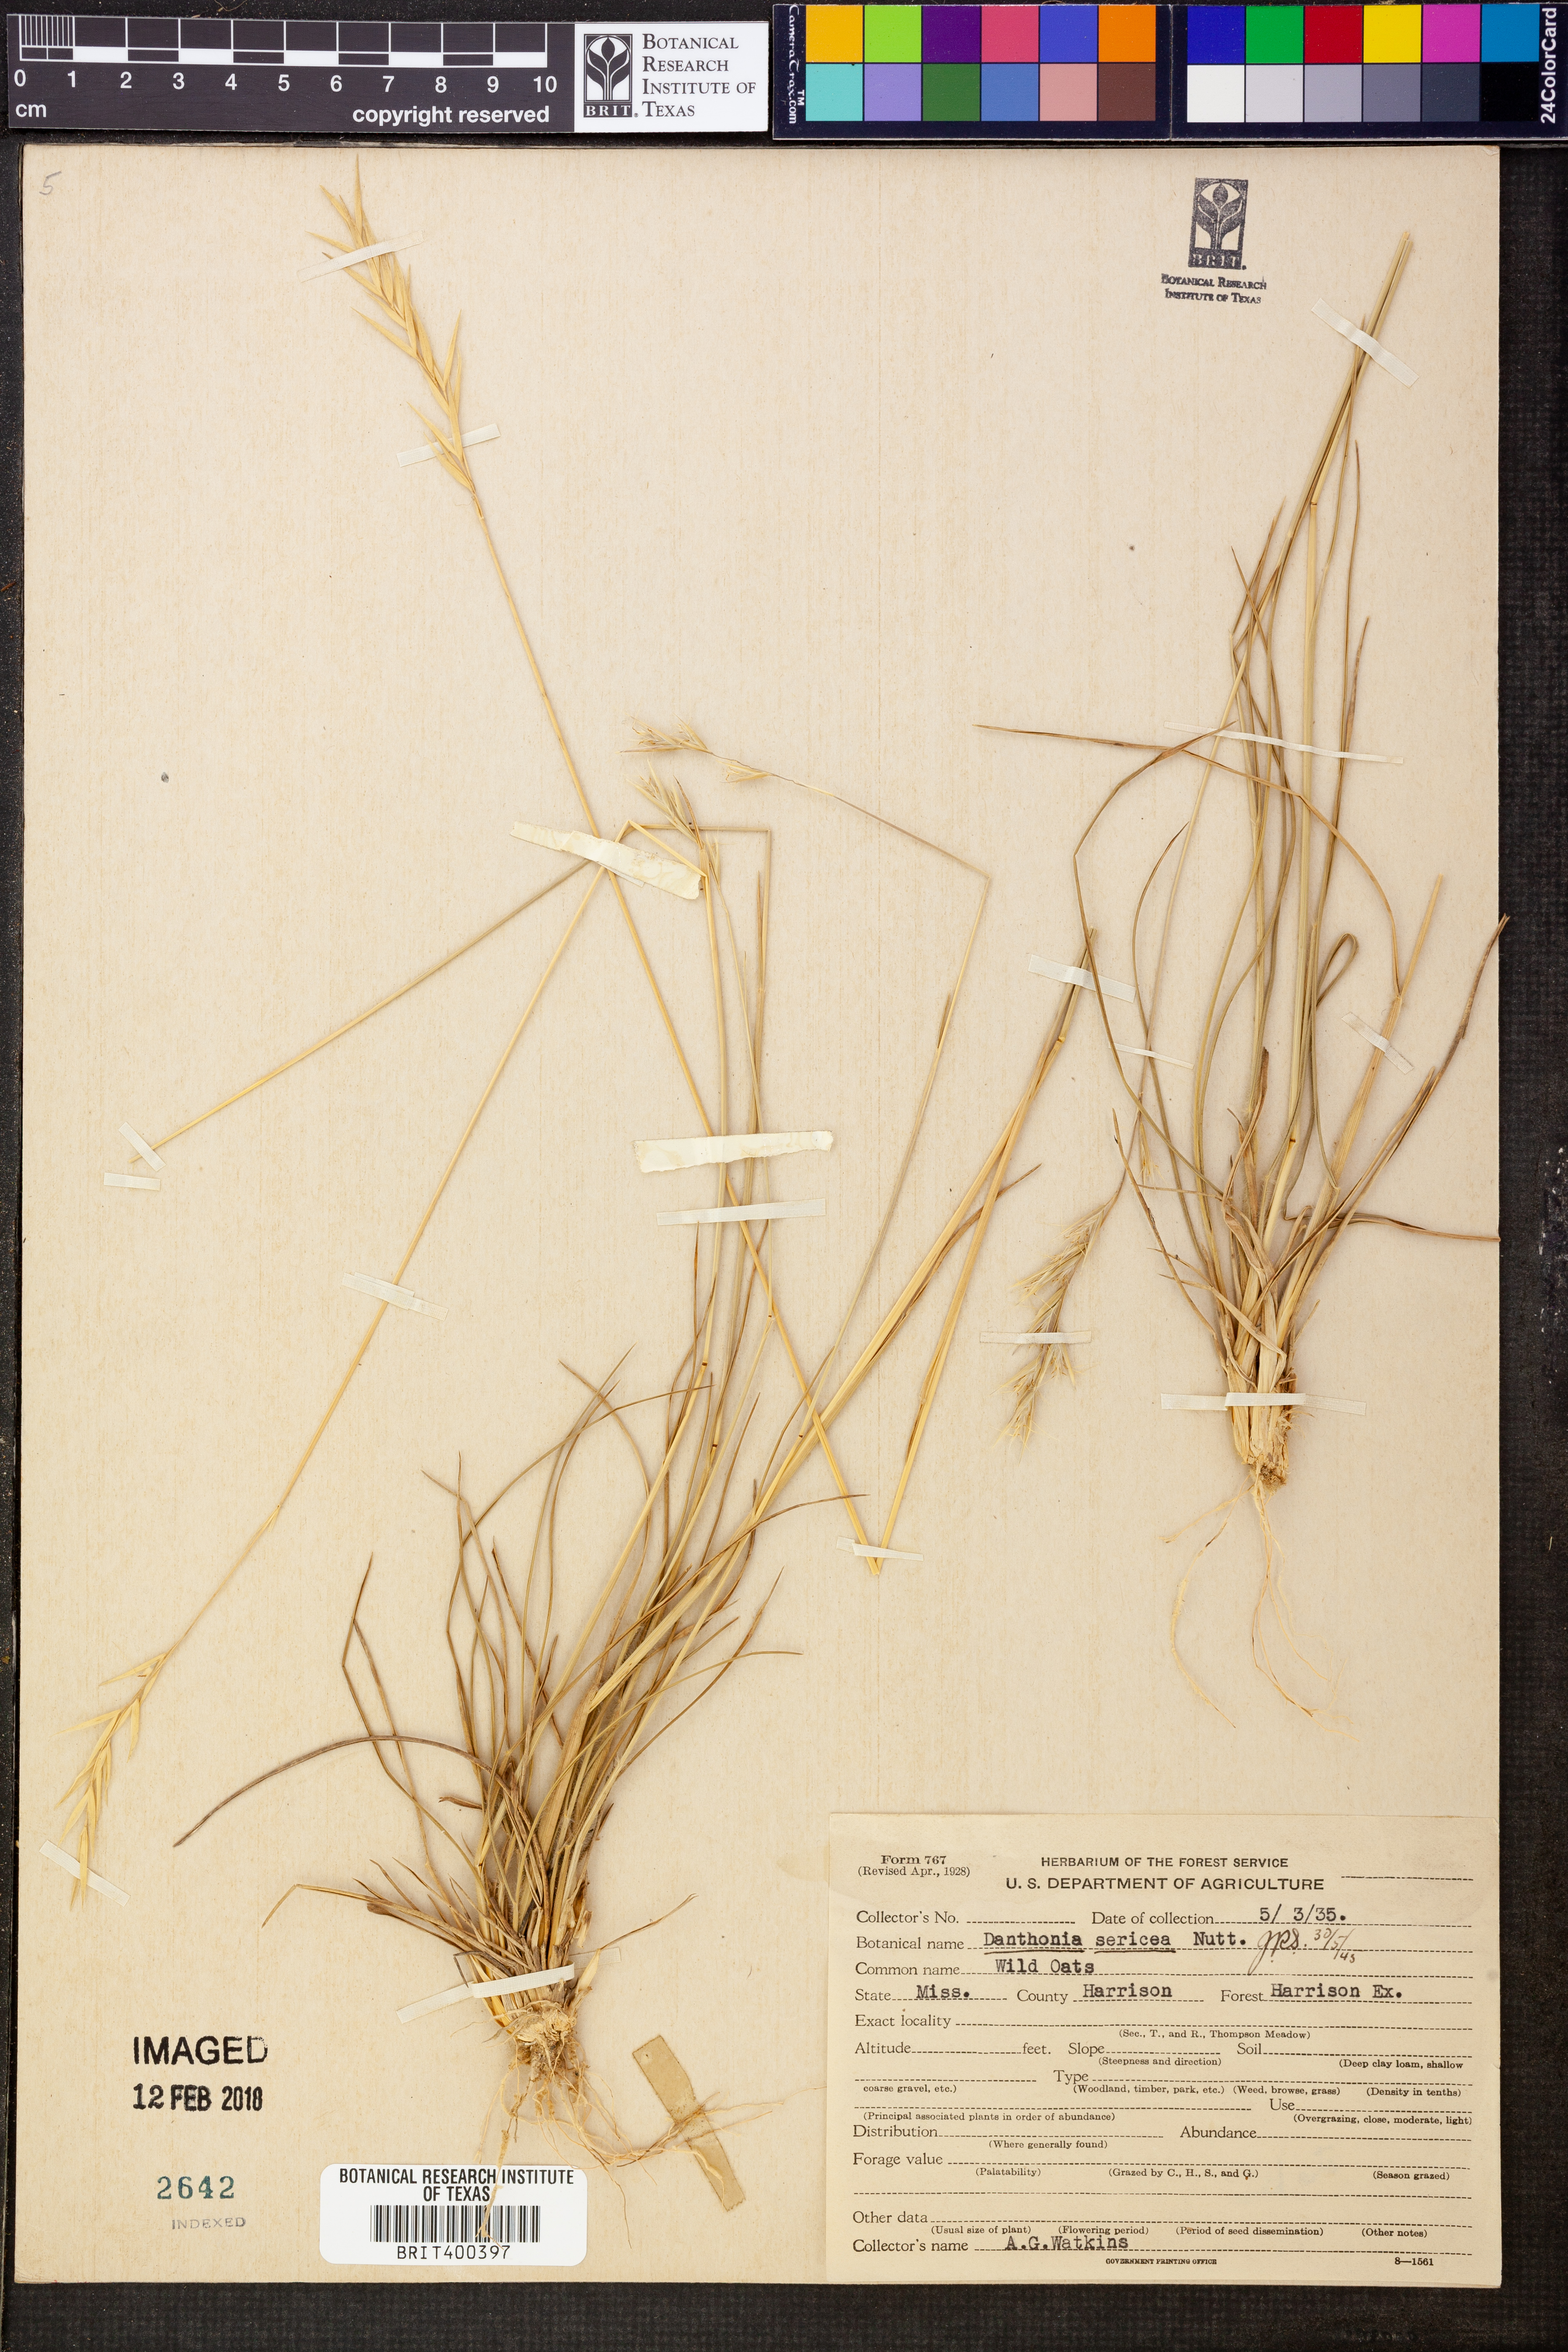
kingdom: Plantae
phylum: Tracheophyta
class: Liliopsida
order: Poales
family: Poaceae
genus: Danthonia
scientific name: Danthonia sericea
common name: Downy danthonia
